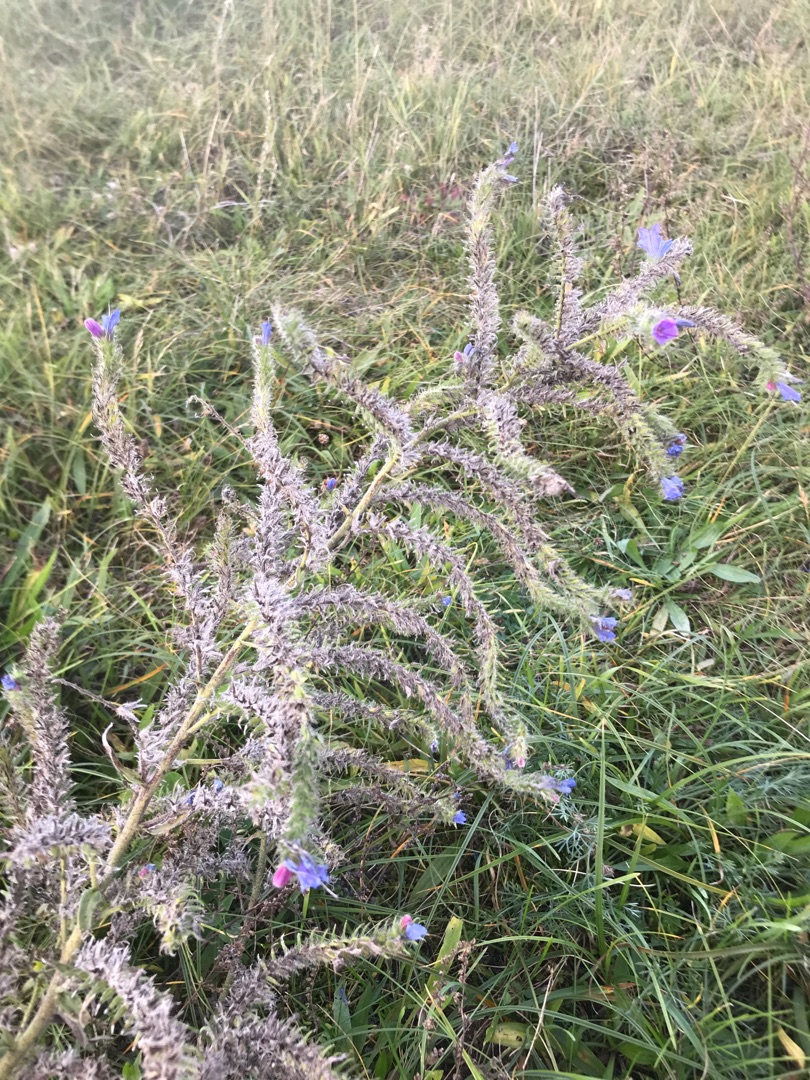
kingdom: Plantae
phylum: Tracheophyta
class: Magnoliopsida
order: Boraginales
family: Boraginaceae
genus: Echium
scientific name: Echium vulgare
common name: Slangehoved
